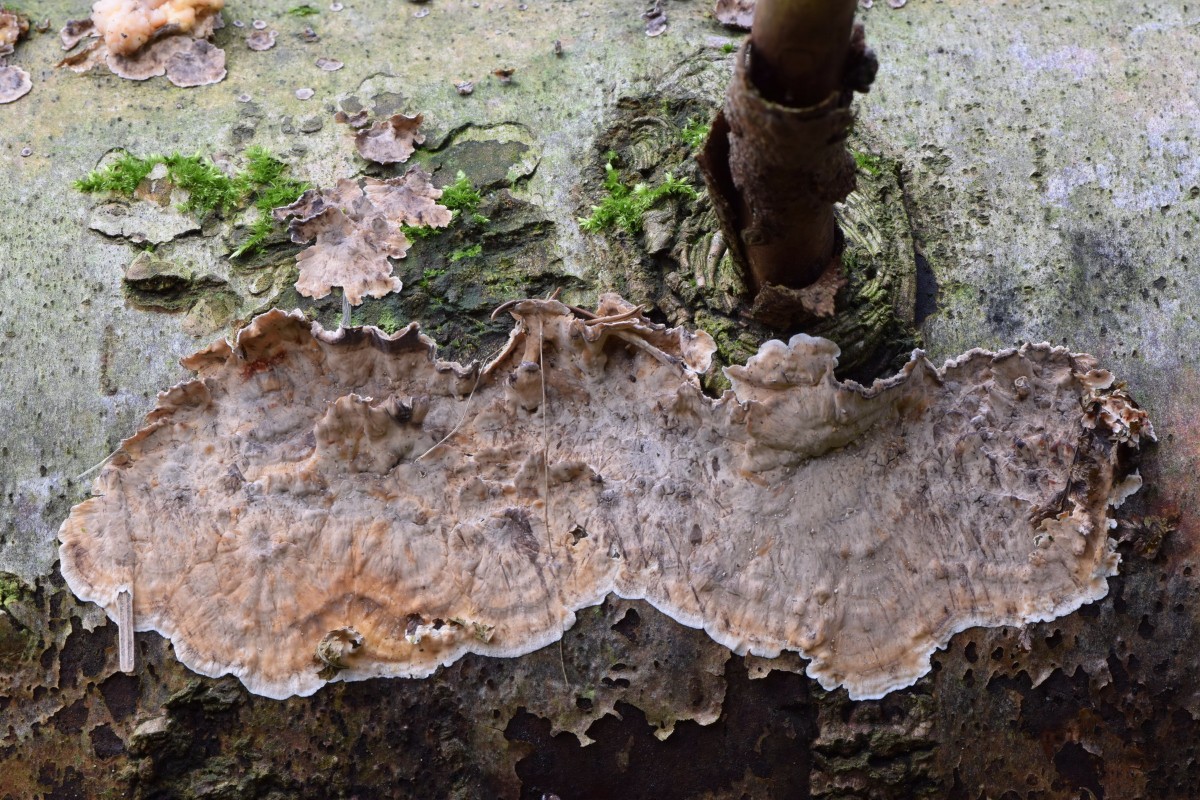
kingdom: Fungi
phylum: Basidiomycota
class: Agaricomycetes
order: Russulales
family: Stereaceae
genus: Stereum
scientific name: Stereum sanguinolentum
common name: blødende lædersvamp
